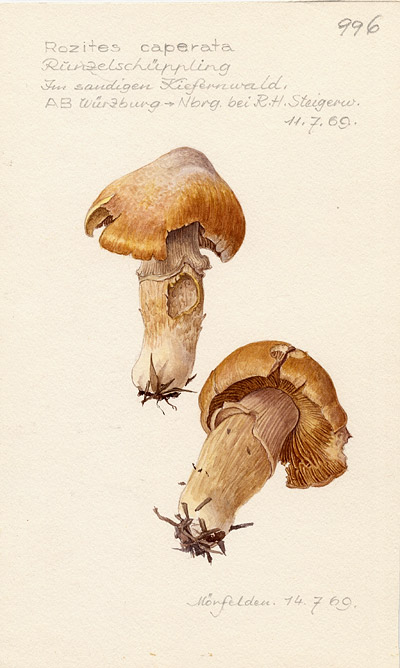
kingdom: Fungi
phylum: Basidiomycota
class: Agaricomycetes
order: Agaricales
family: Cortinariaceae
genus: Cortinarius
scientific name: Cortinarius caperatus
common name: The gypsy
